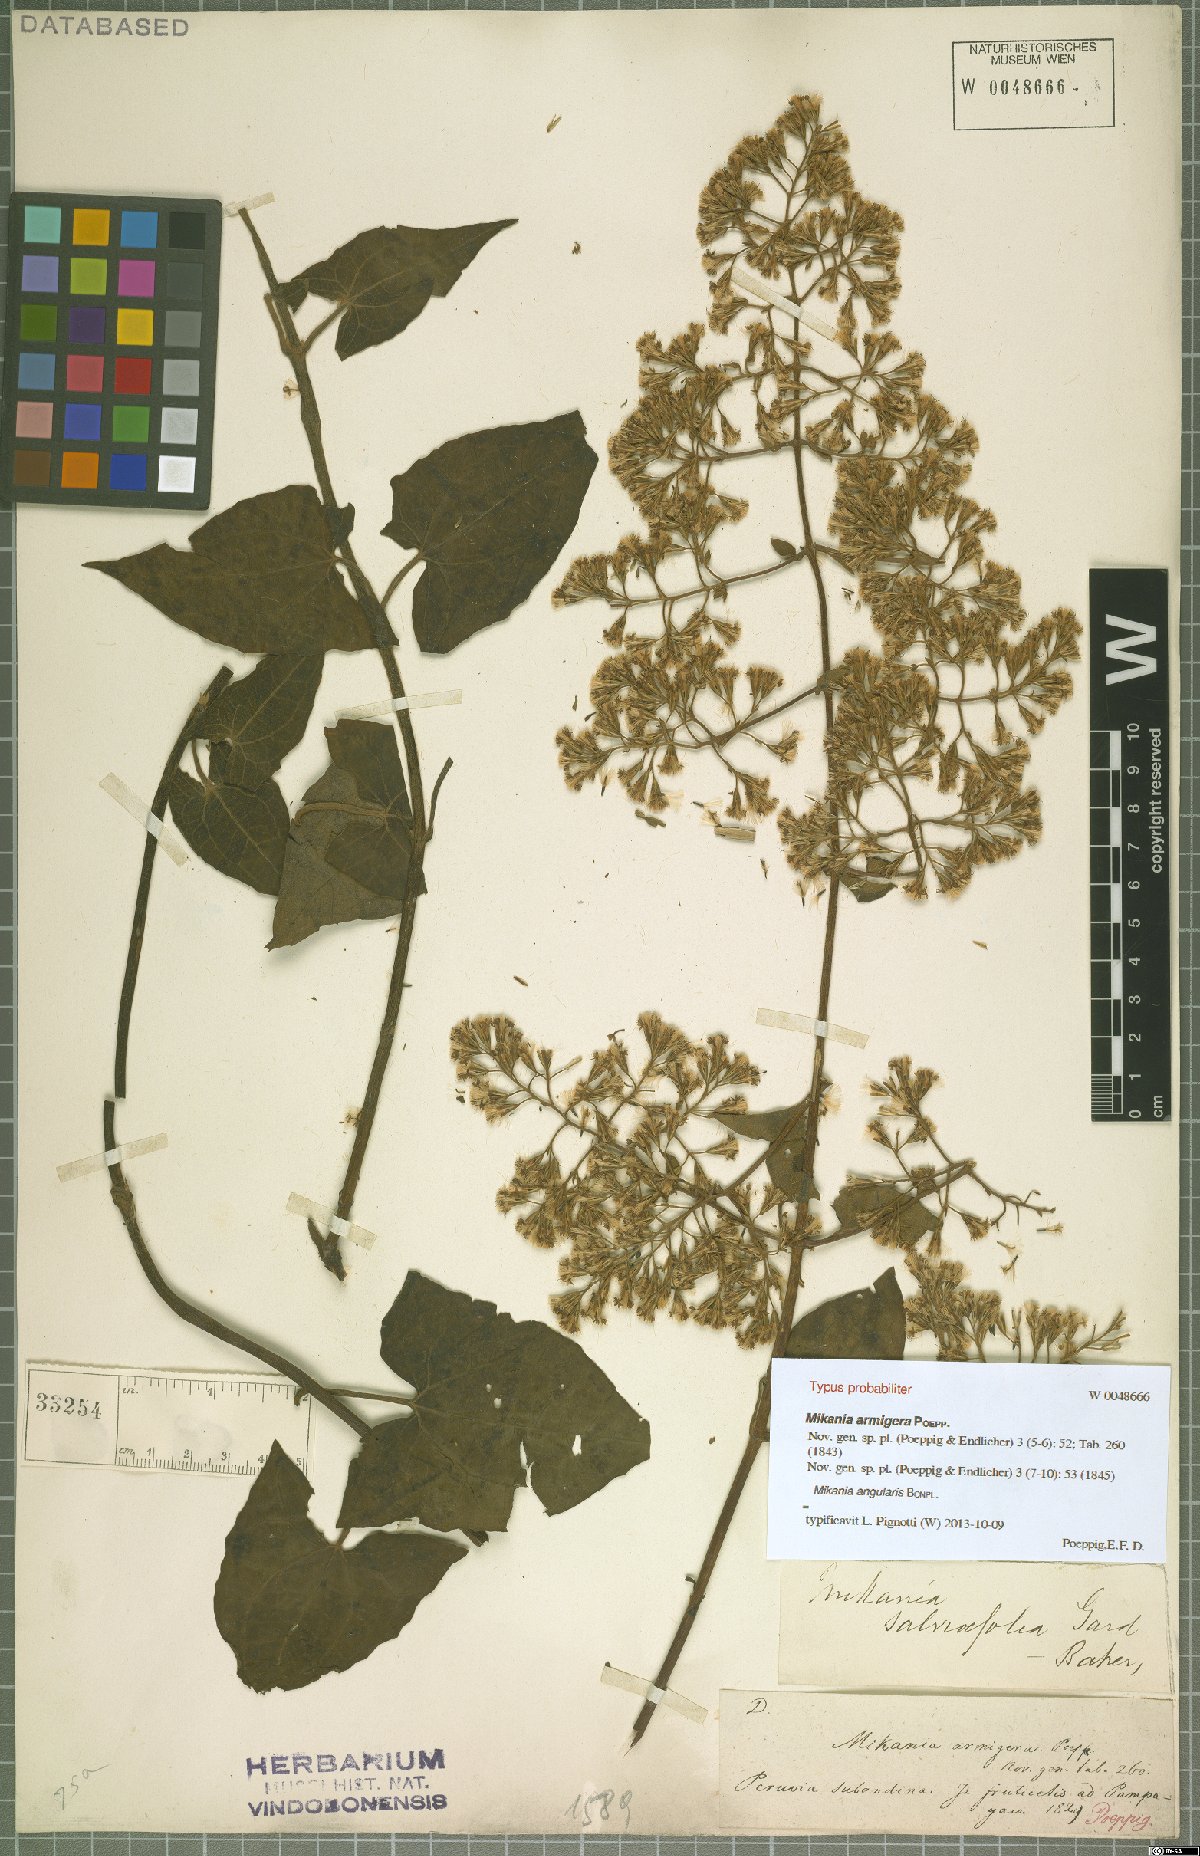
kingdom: Plantae
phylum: Tracheophyta
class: Magnoliopsida
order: Asterales
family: Asteraceae
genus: Mikania
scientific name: Mikania angularis
